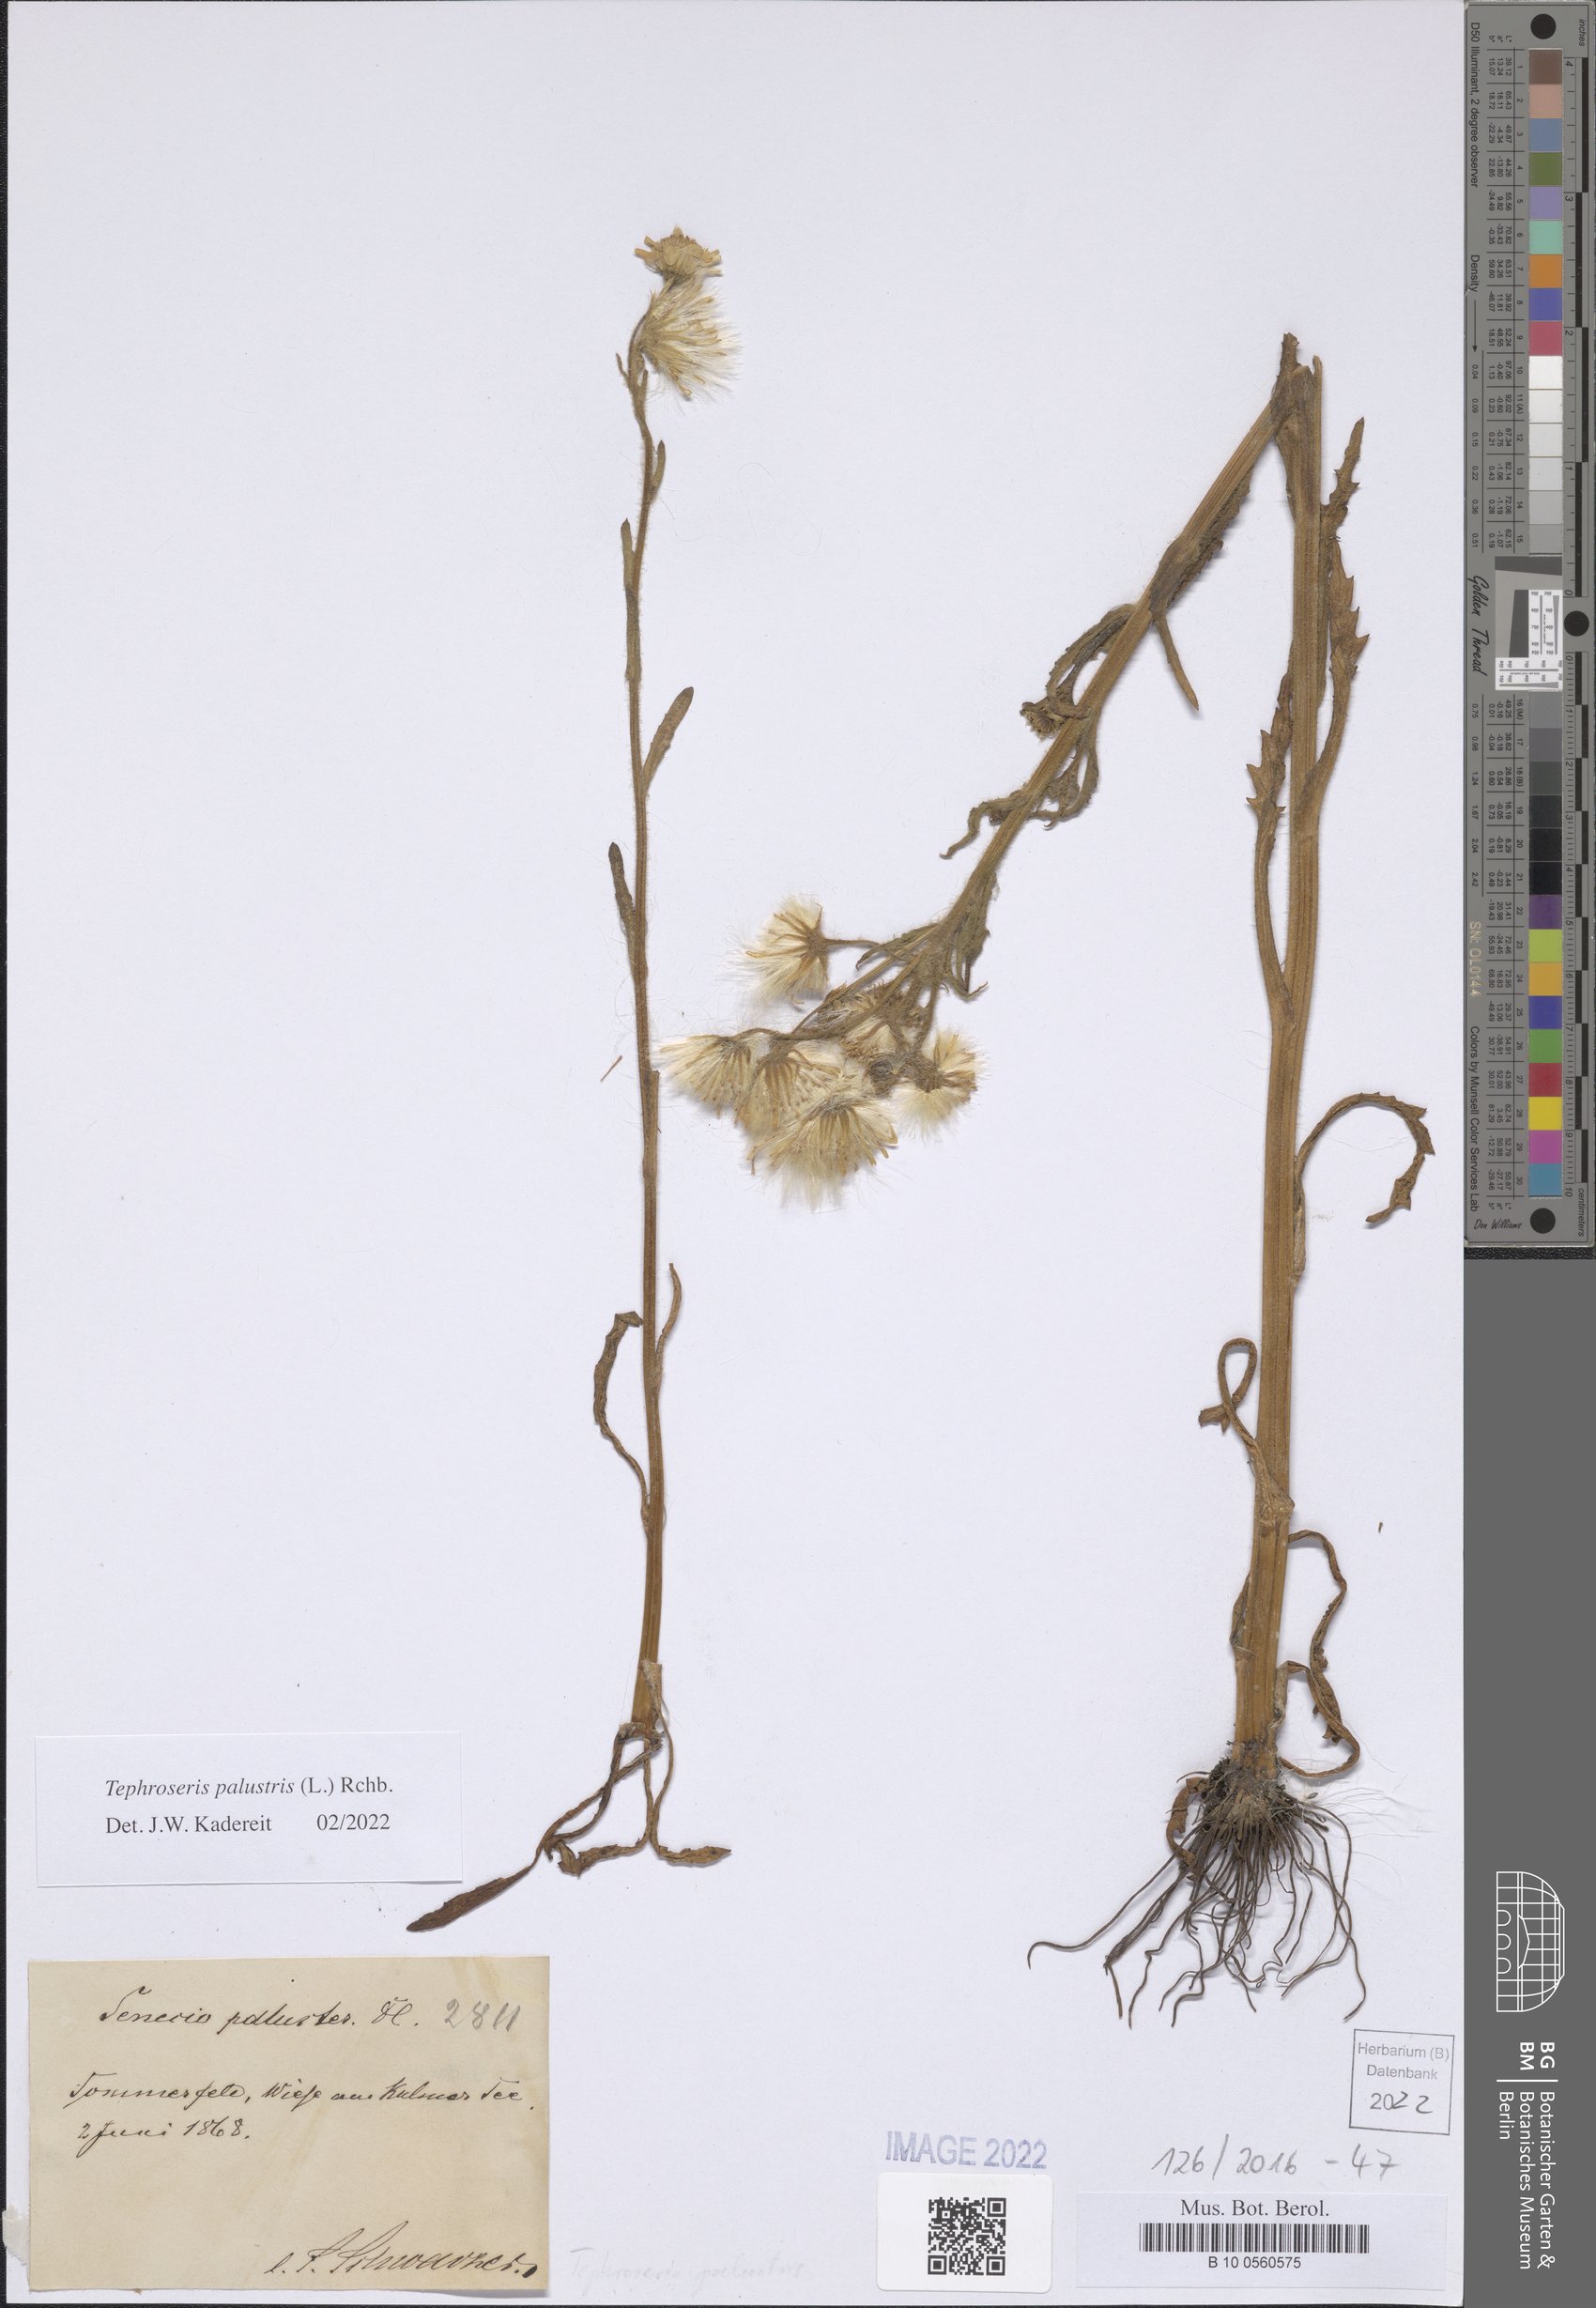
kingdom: Plantae
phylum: Tracheophyta
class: Magnoliopsida
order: Asterales
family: Asteraceae
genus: Tephroseris
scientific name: Tephroseris palustris
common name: Marsh fleawort
